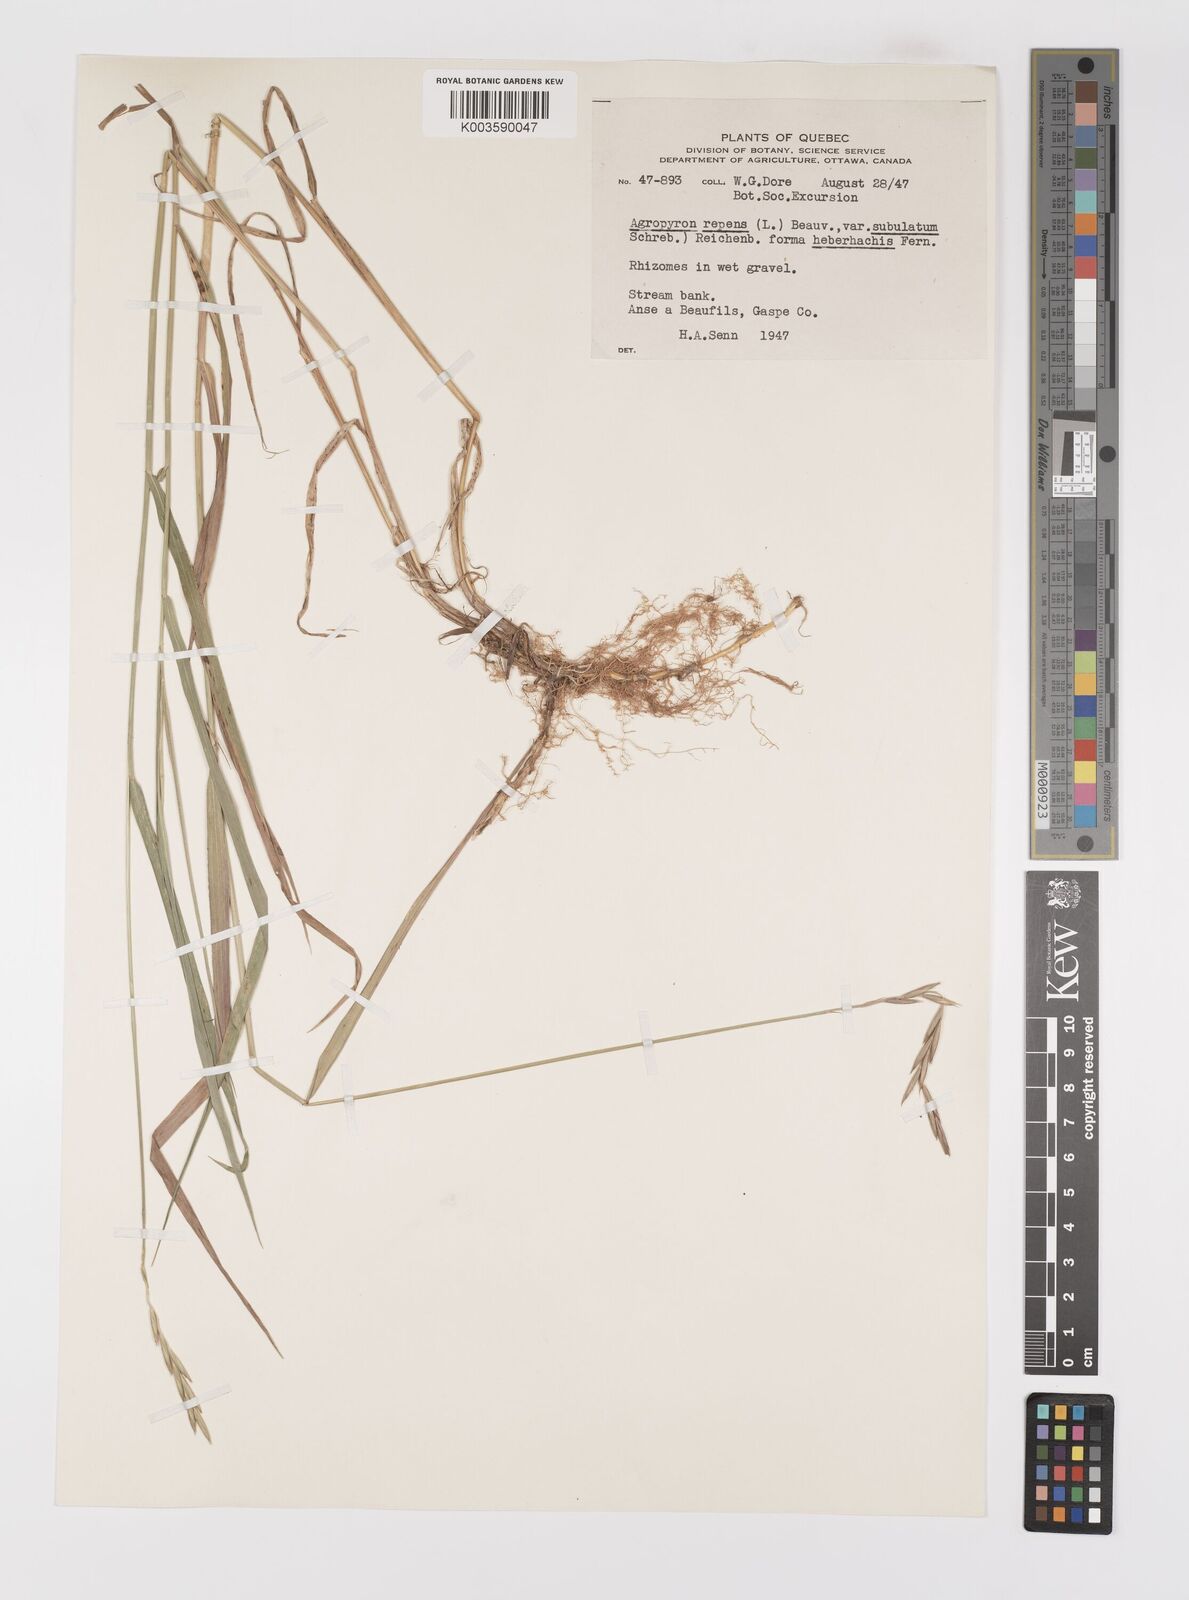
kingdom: Plantae
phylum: Tracheophyta
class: Liliopsida
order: Poales
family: Poaceae
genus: Elymus
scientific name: Elymus repens
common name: Quackgrass
